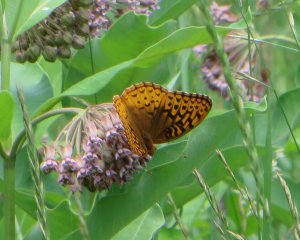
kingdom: Animalia
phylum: Arthropoda
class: Insecta
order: Lepidoptera
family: Nymphalidae
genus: Speyeria
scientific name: Speyeria cybele
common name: Great Spangled Fritillary
